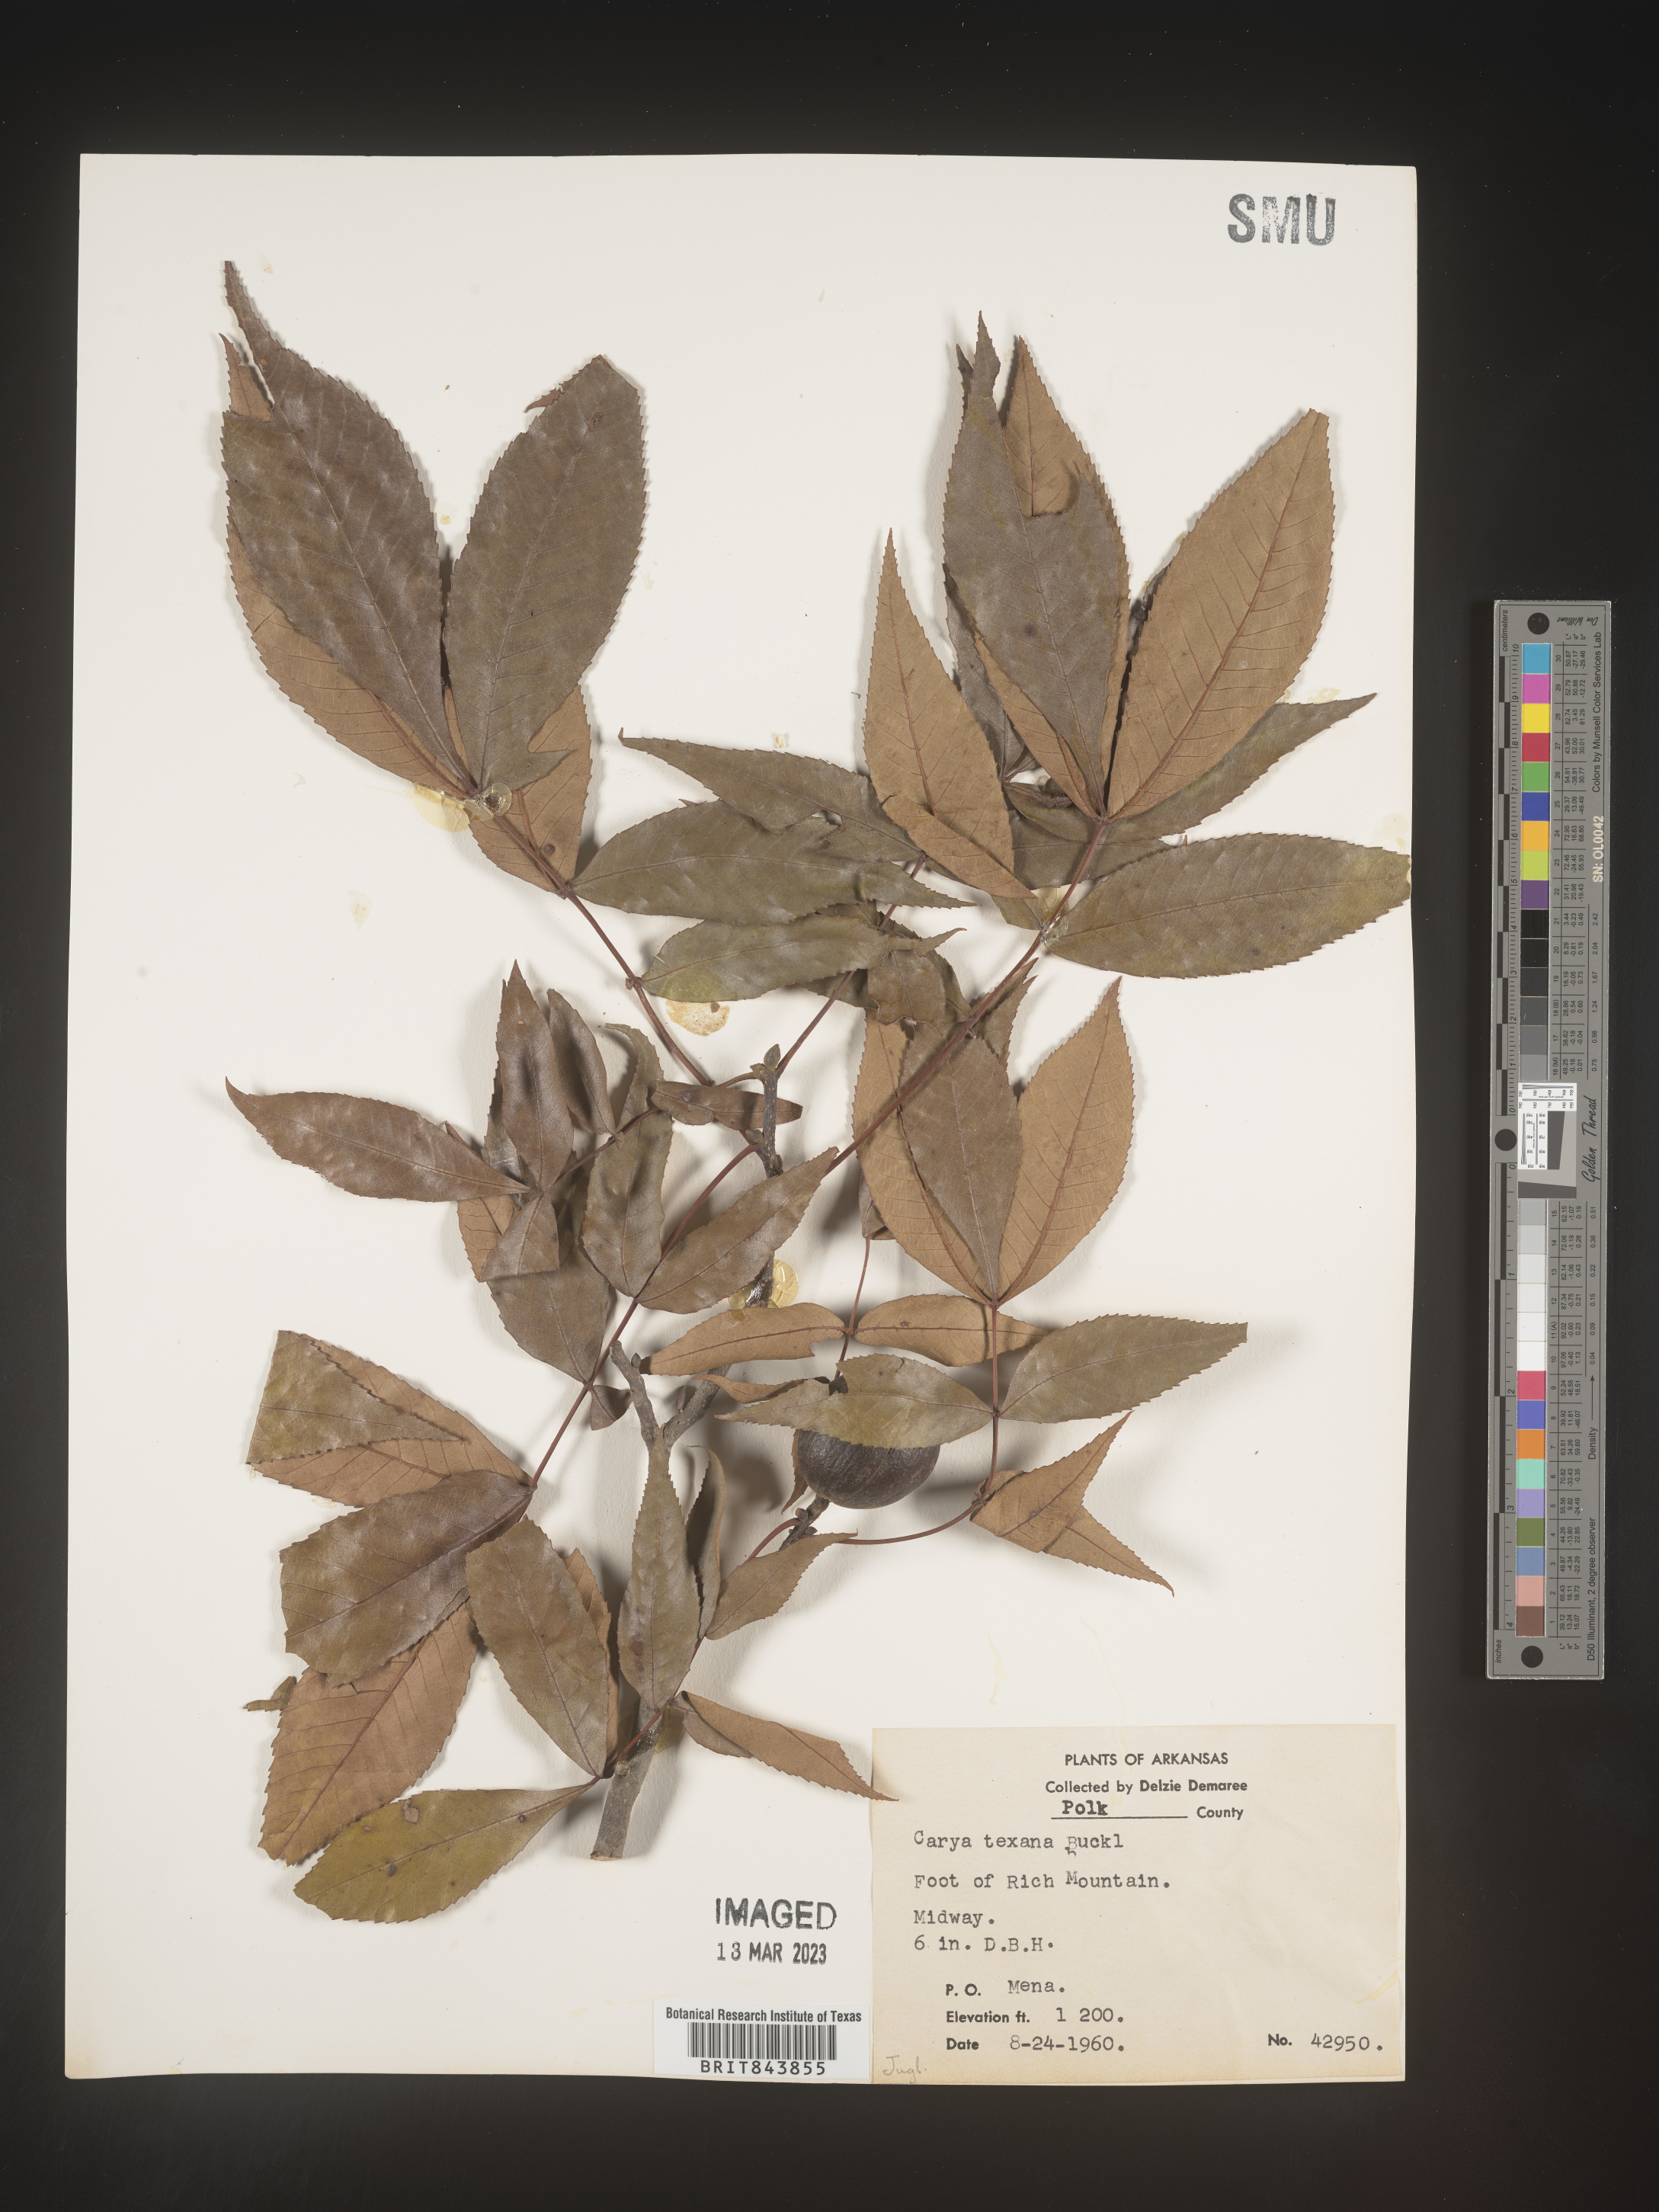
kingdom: Plantae
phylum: Tracheophyta
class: Magnoliopsida
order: Fagales
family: Juglandaceae
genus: Carya
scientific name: Carya texana
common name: Black hickory
